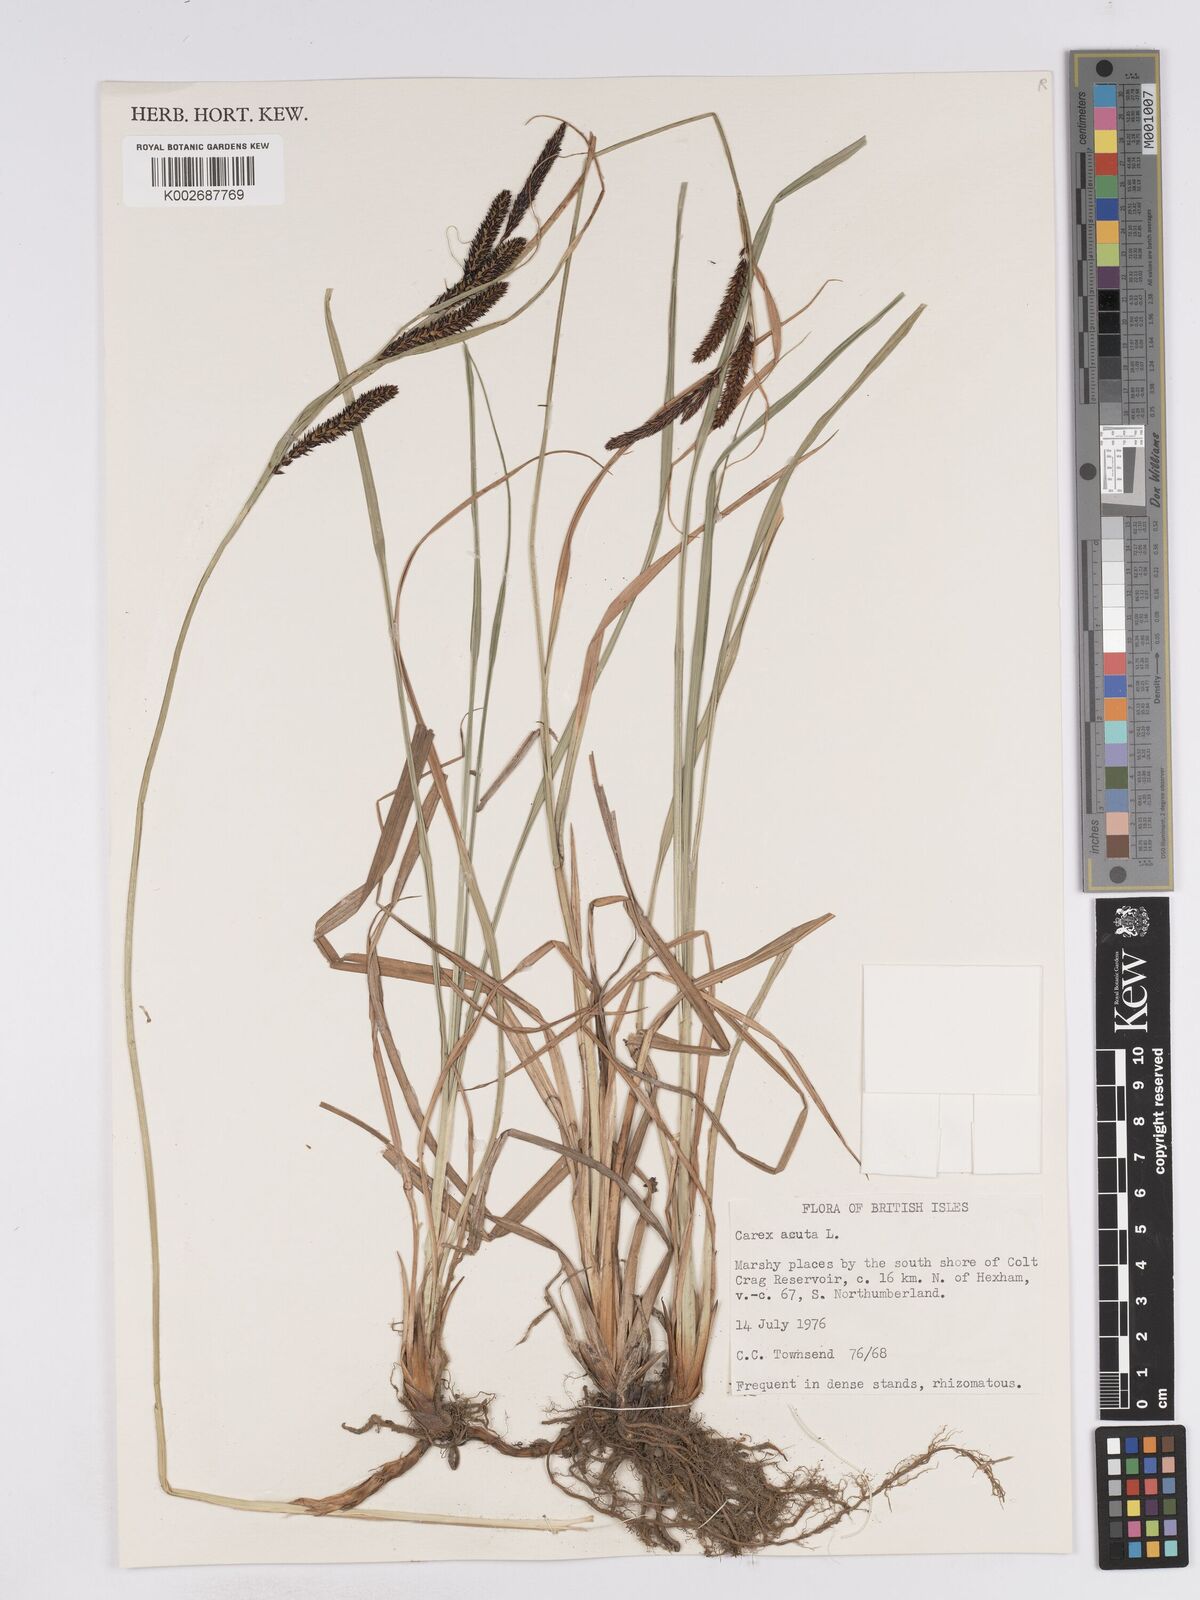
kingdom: Plantae
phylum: Tracheophyta
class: Liliopsida
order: Poales
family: Cyperaceae
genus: Carex
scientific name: Carex acuta
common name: Slender tufted-sedge
